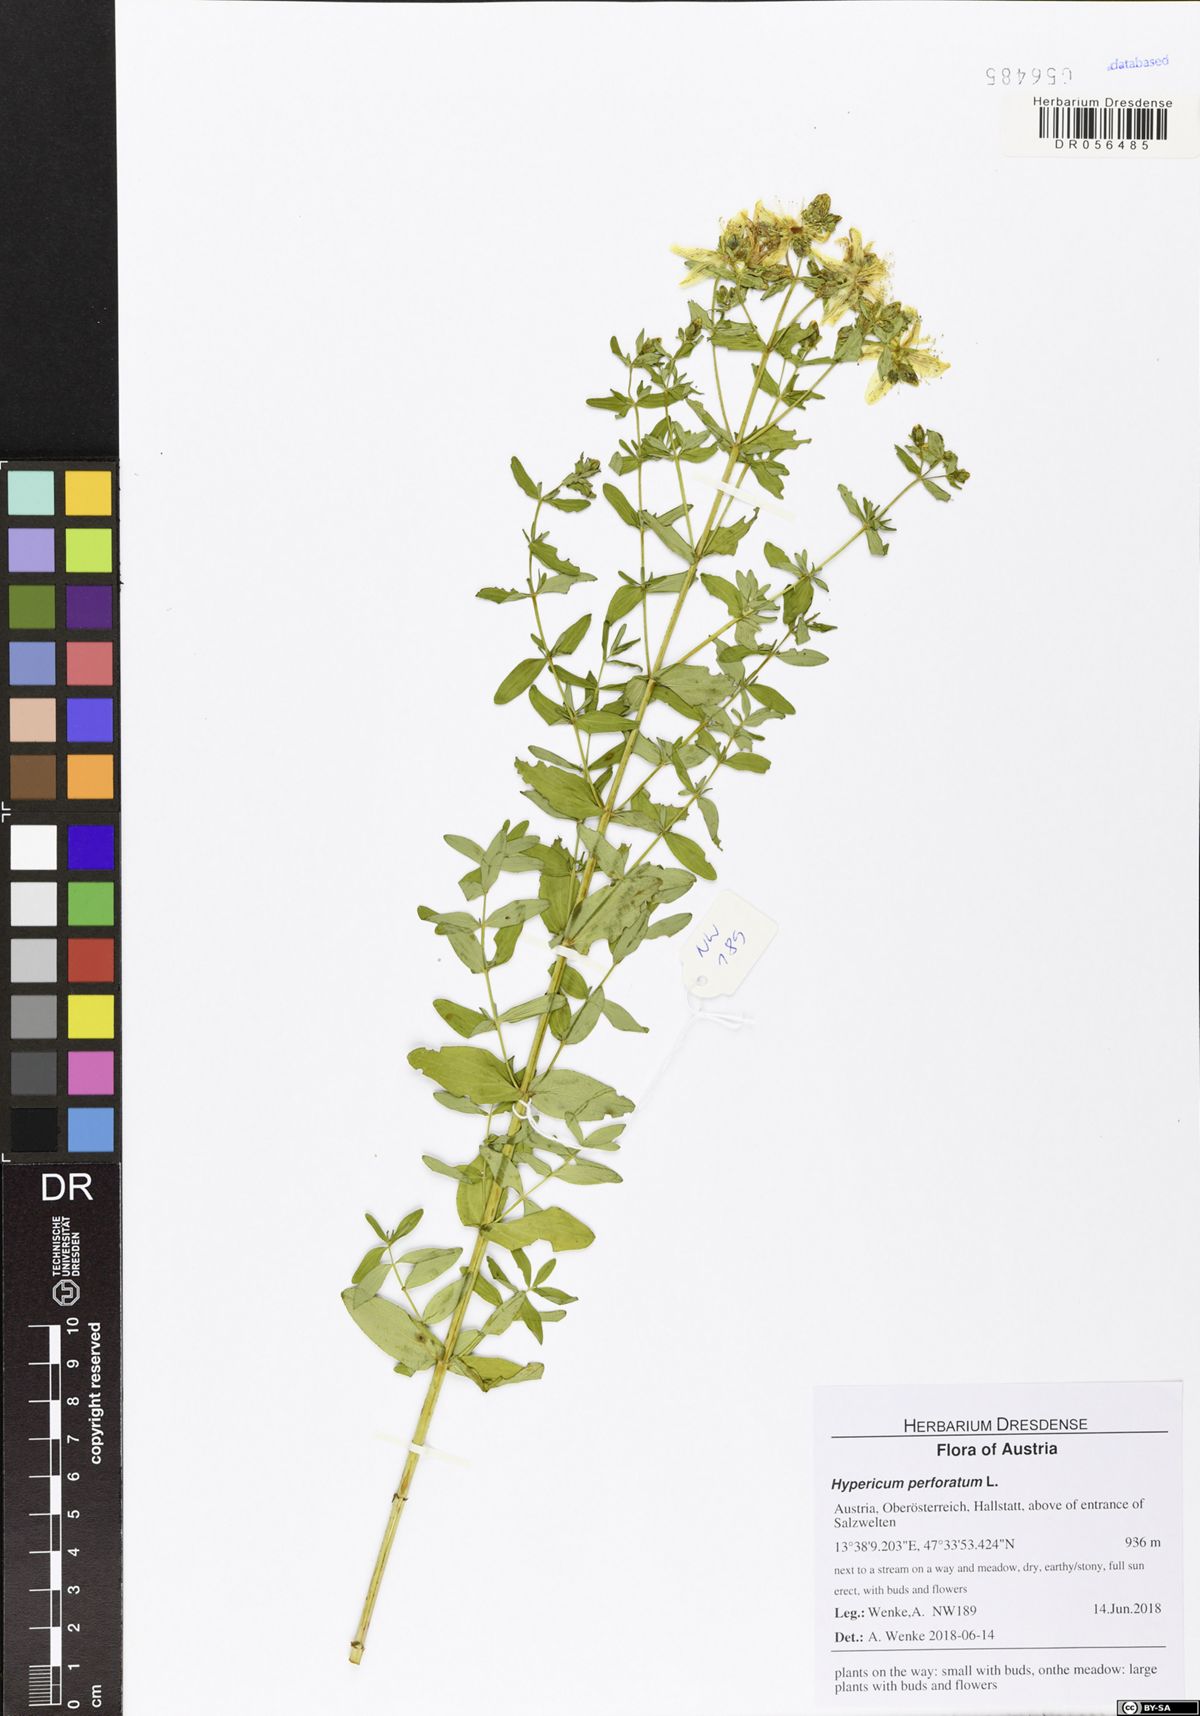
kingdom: Plantae
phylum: Tracheophyta
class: Magnoliopsida
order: Malpighiales
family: Hypericaceae
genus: Hypericum
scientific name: Hypericum perforatum
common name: Common st. johnswort
